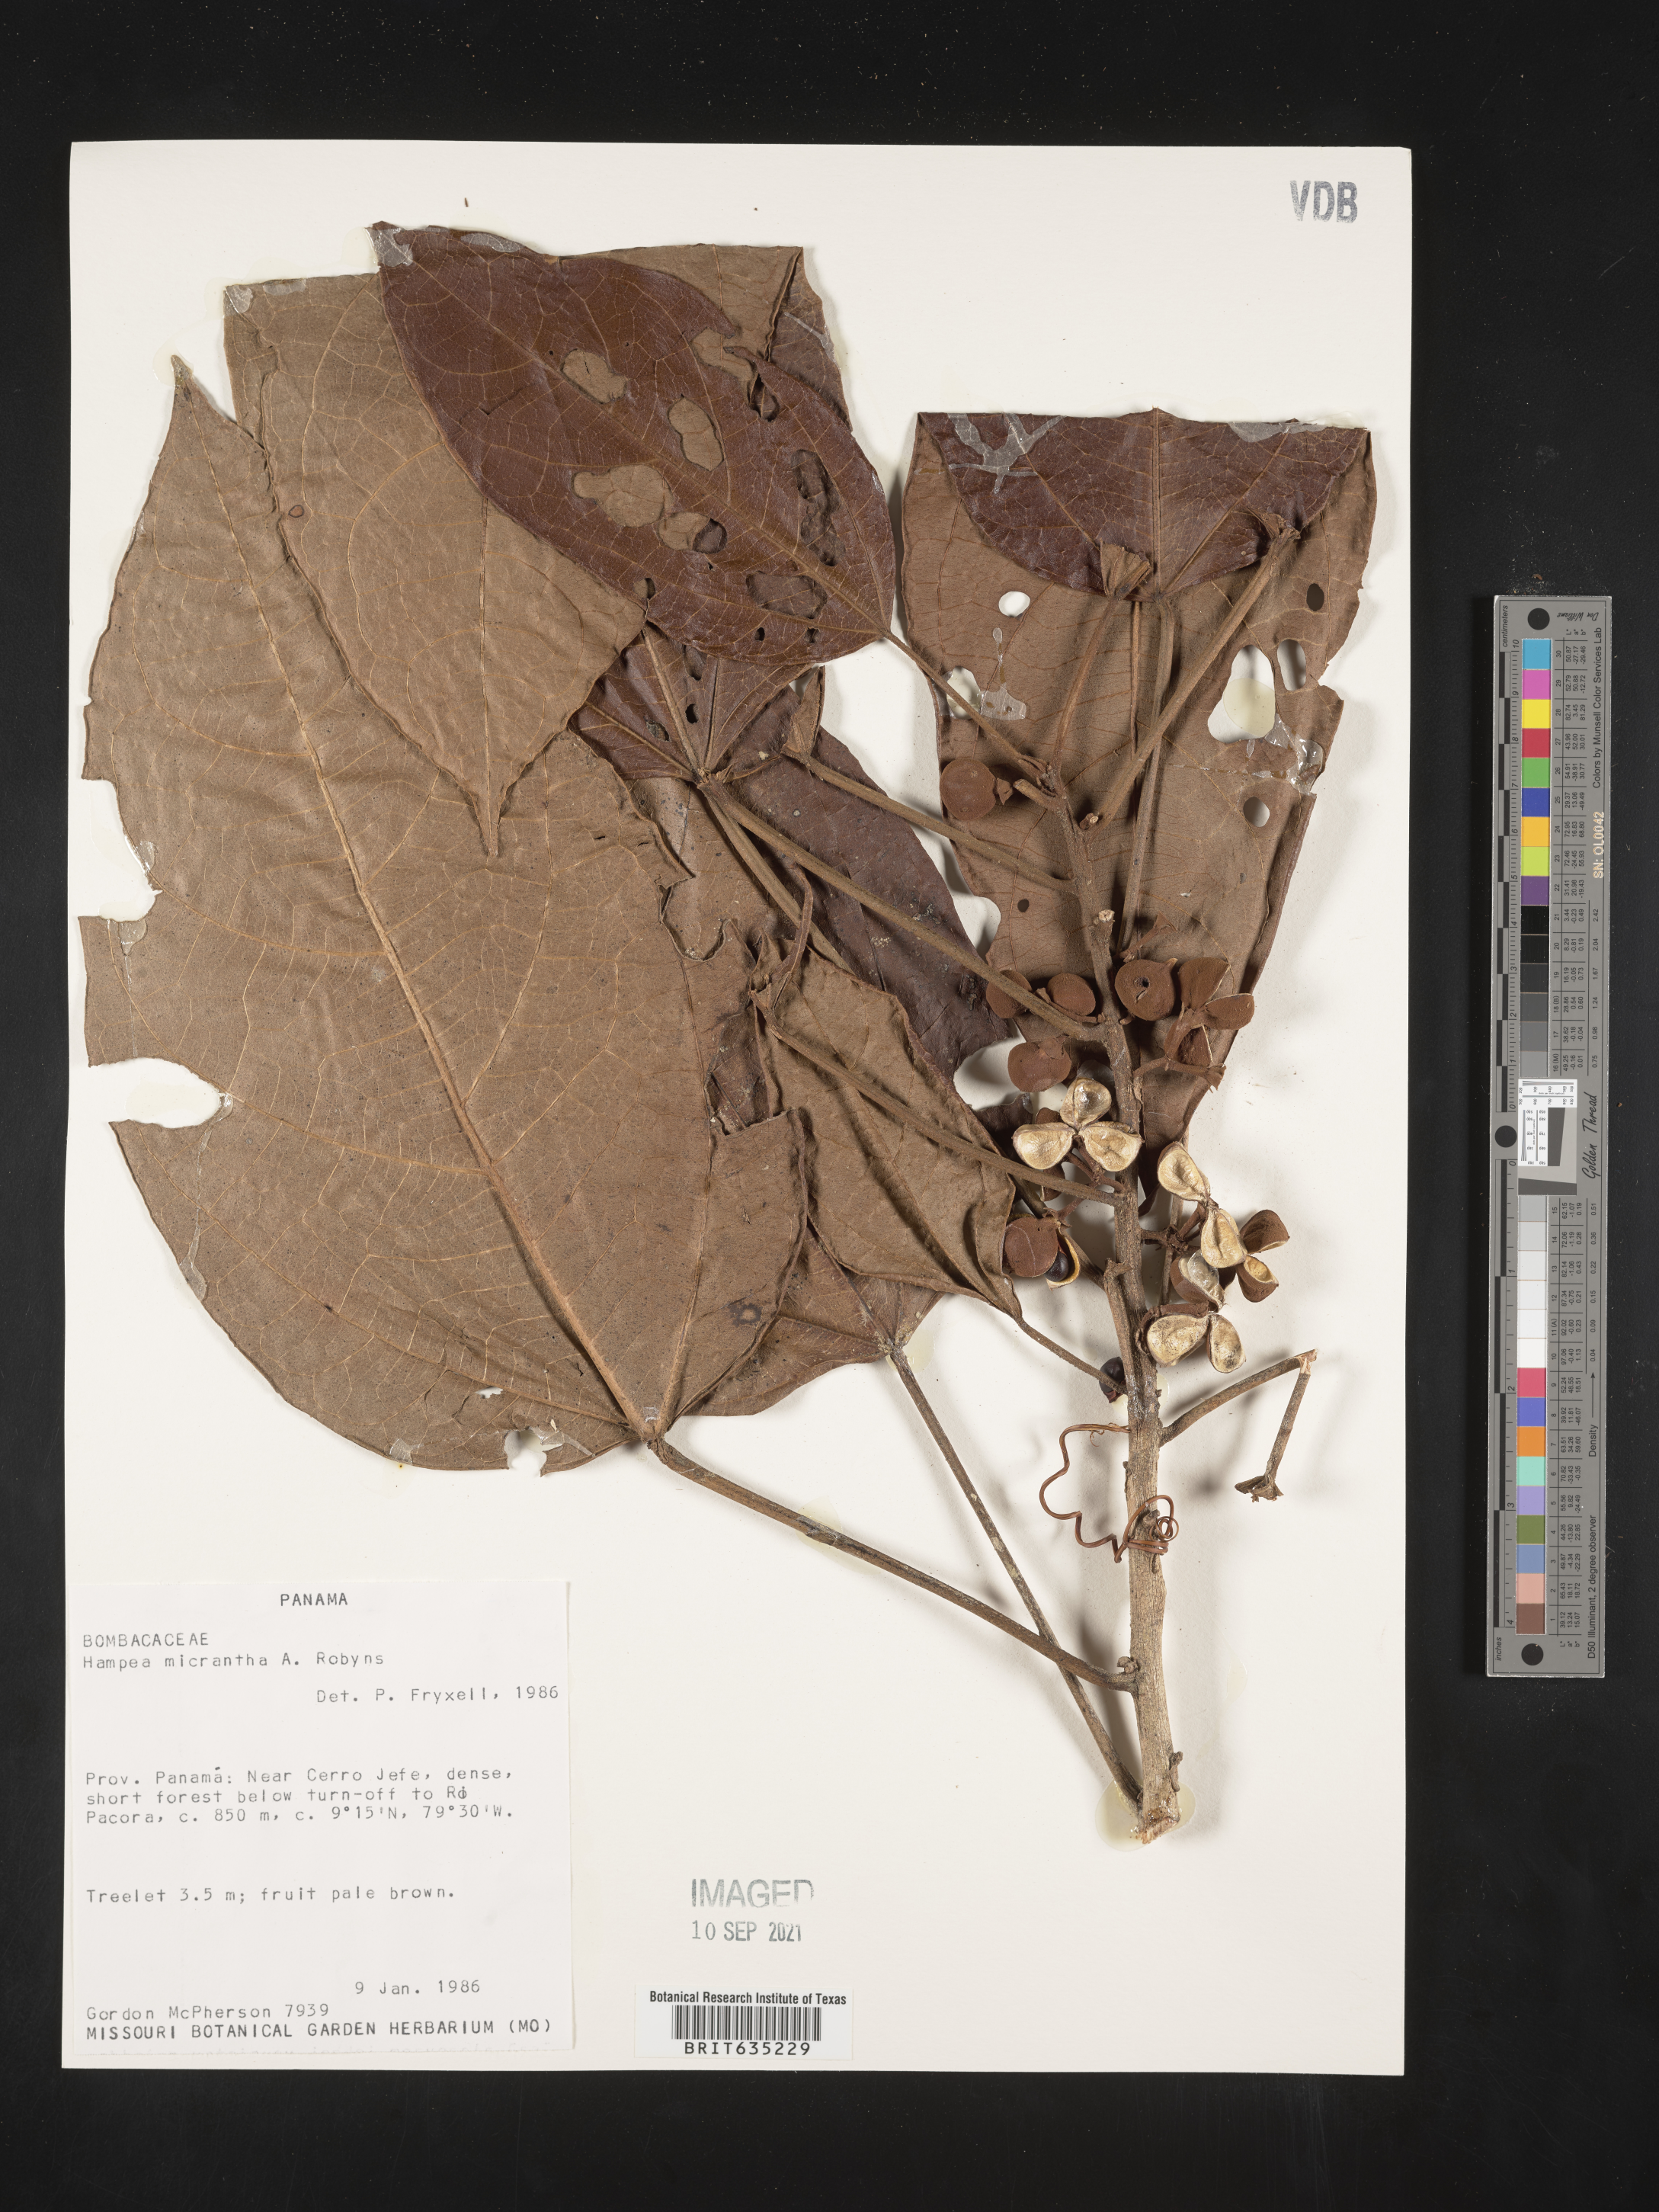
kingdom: Plantae
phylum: Tracheophyta
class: Magnoliopsida
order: Malvales
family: Malvaceae
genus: Hampea
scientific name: Hampea
